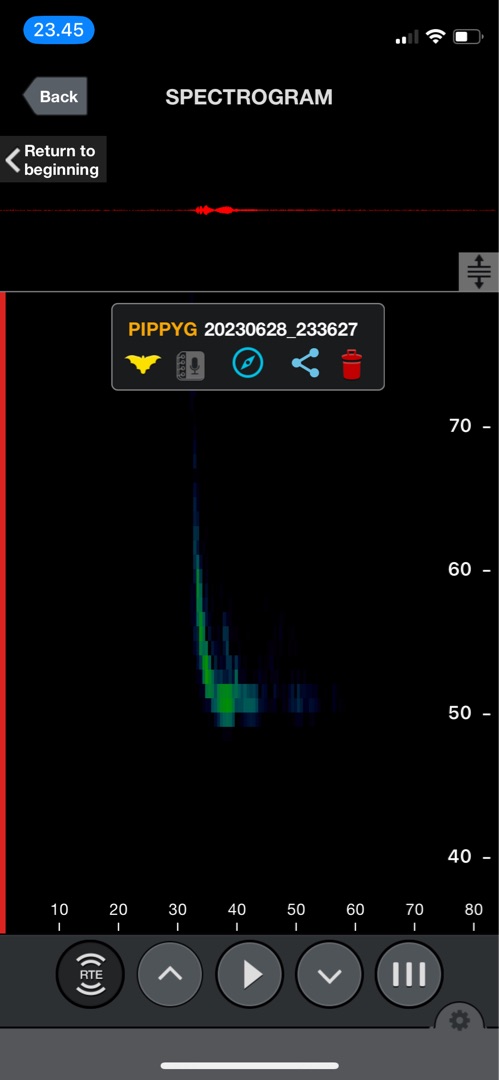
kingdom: Animalia
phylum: Chordata
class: Mammalia
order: Chiroptera
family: Vespertilionidae
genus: Pipistrellus
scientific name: Pipistrellus pygmaeus
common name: Dværgflagermus
